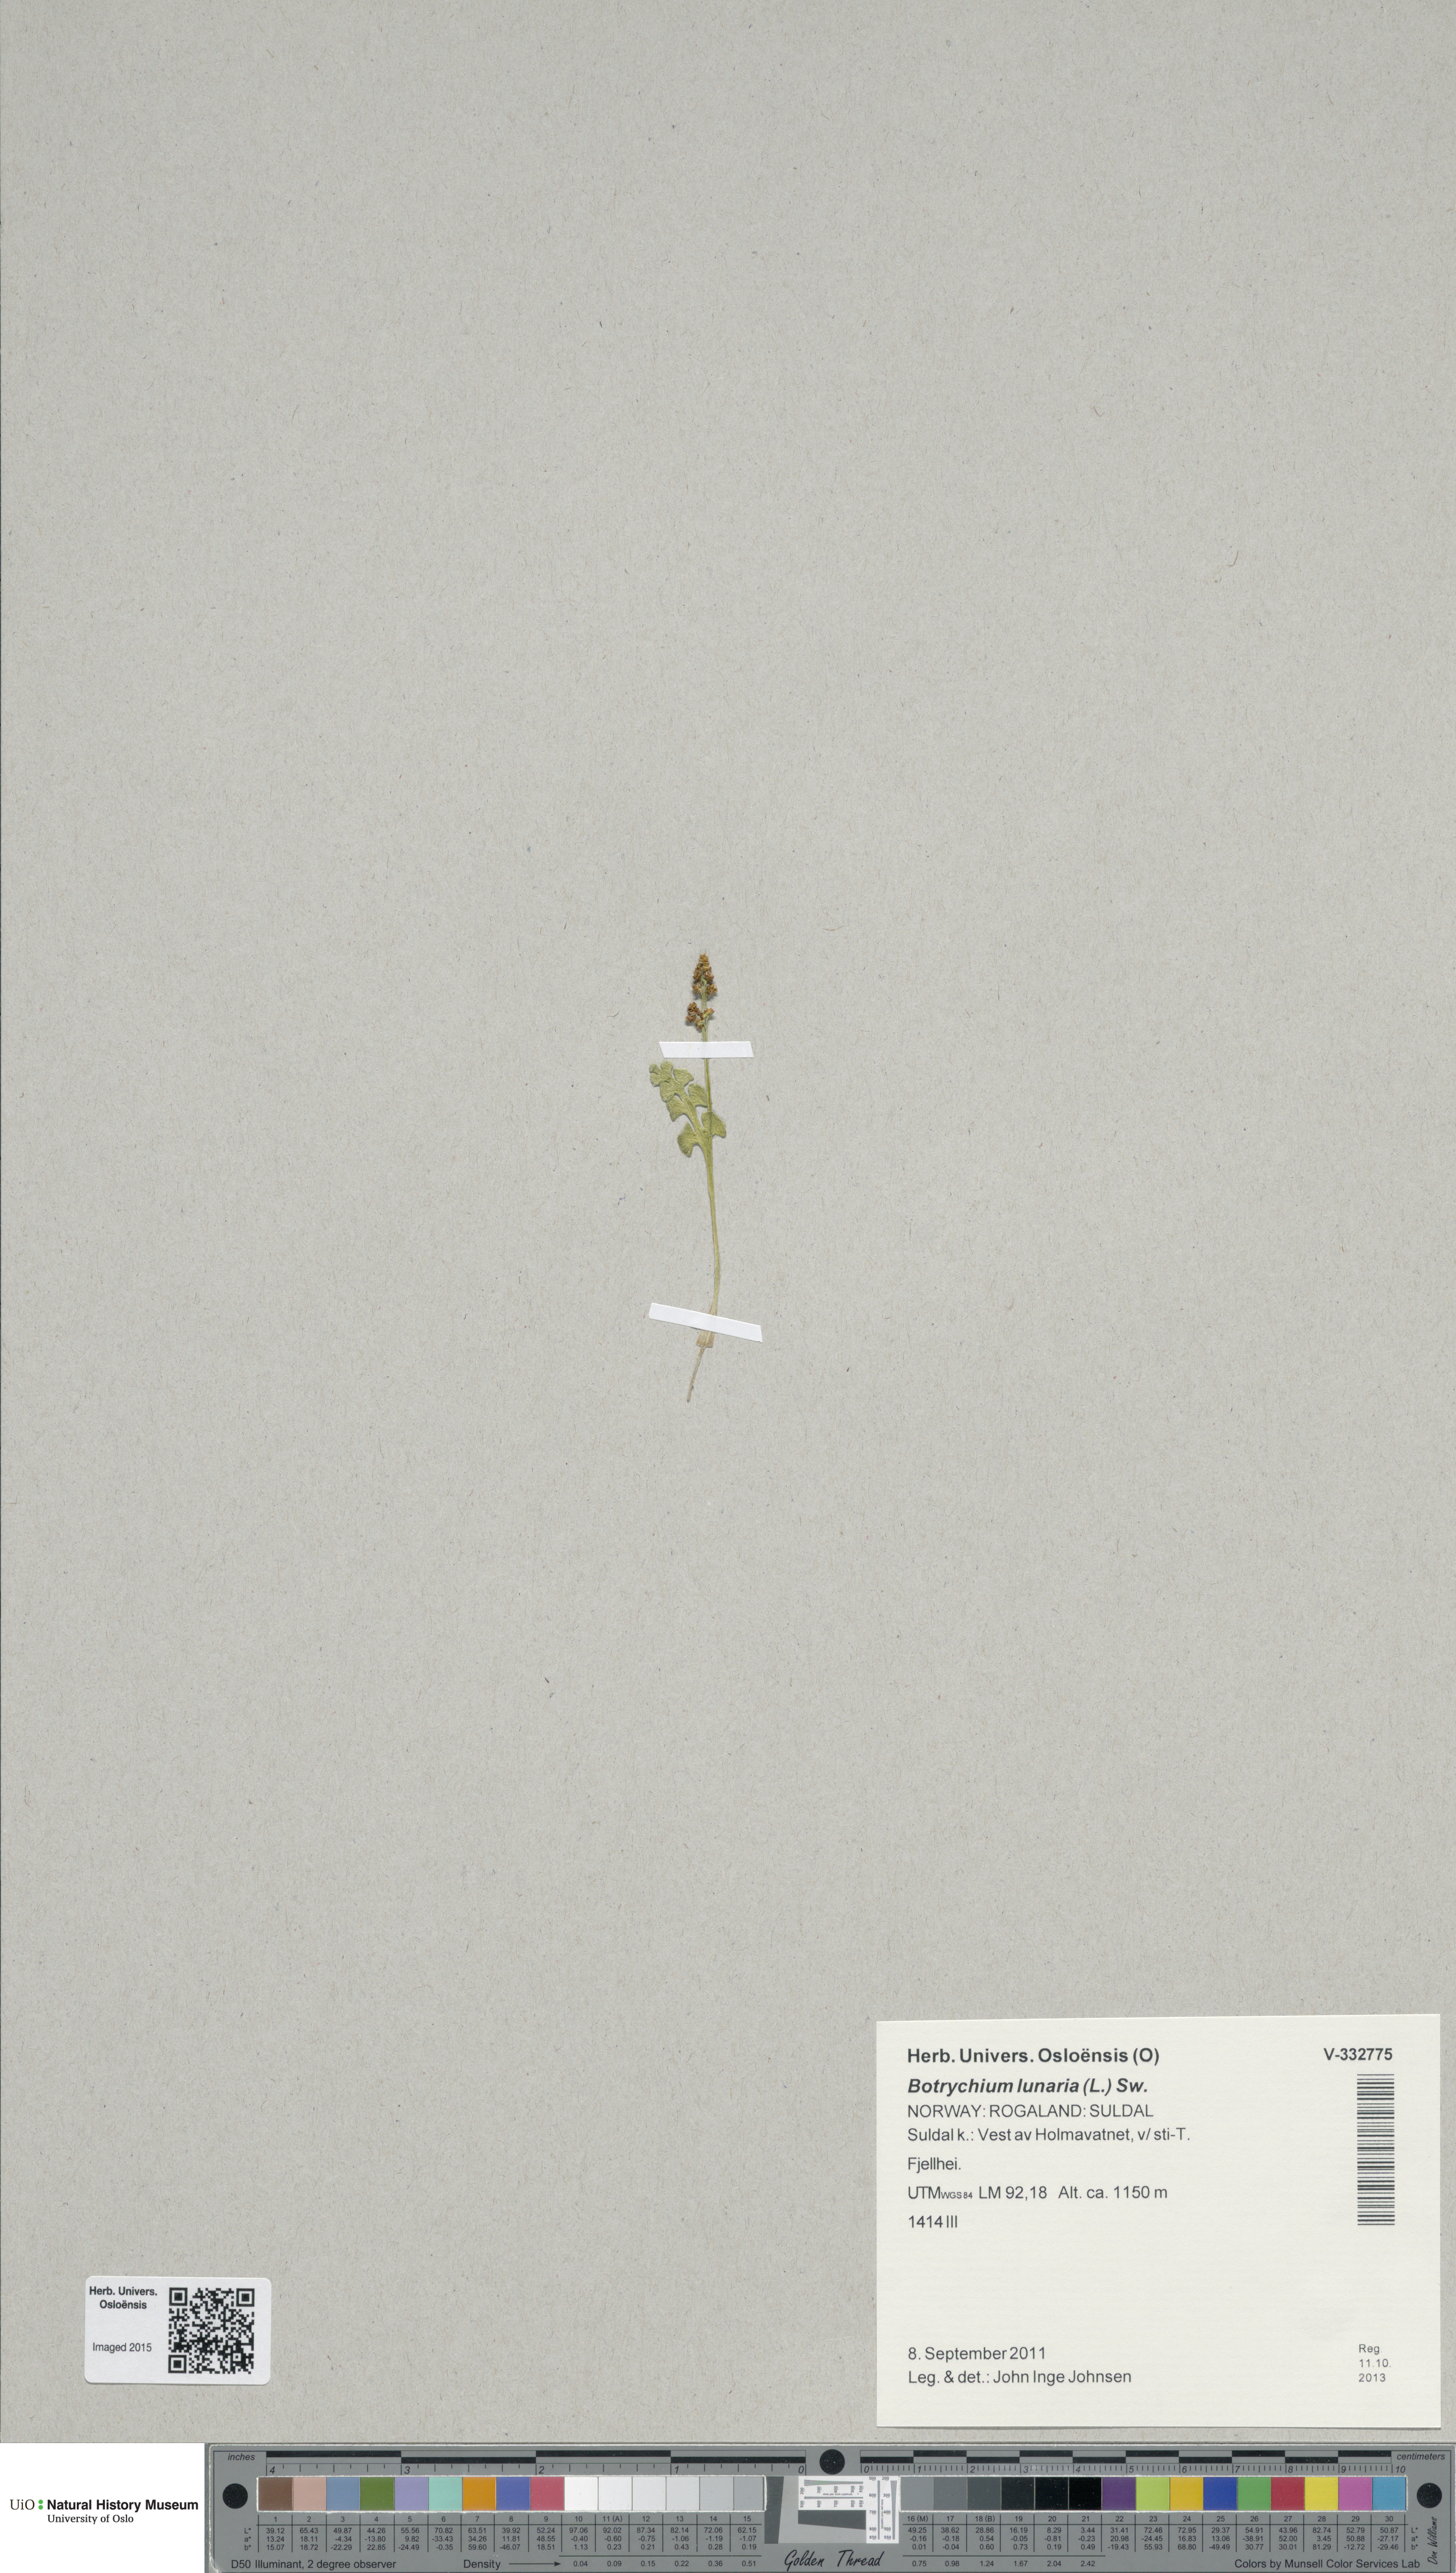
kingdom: Plantae
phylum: Tracheophyta
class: Polypodiopsida
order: Ophioglossales
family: Ophioglossaceae
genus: Botrychium
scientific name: Botrychium lunaria
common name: Moonwort
